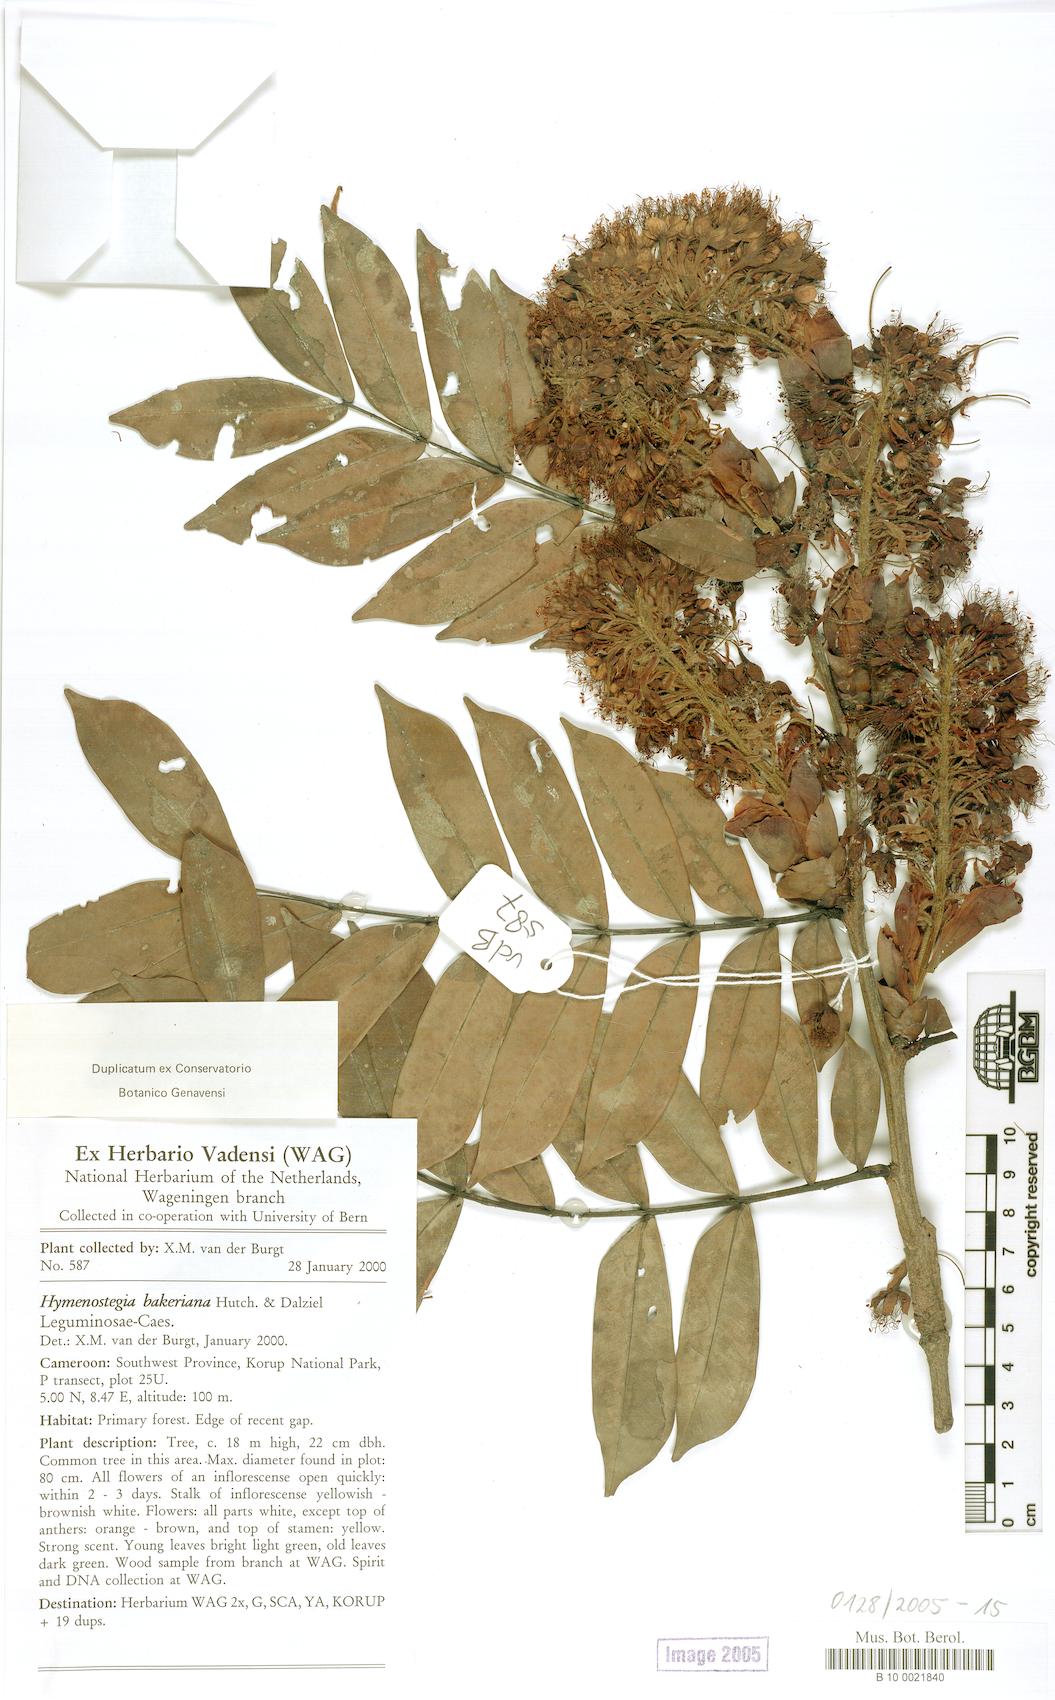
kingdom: Plantae
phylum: Tracheophyta
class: Magnoliopsida
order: Fabales
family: Fabaceae
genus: Hymenostegia
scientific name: Hymenostegia bakeriana
